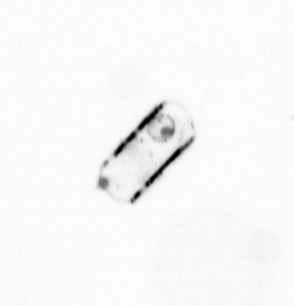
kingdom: Chromista
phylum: Ochrophyta
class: Bacillariophyceae
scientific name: Bacillariophyceae
